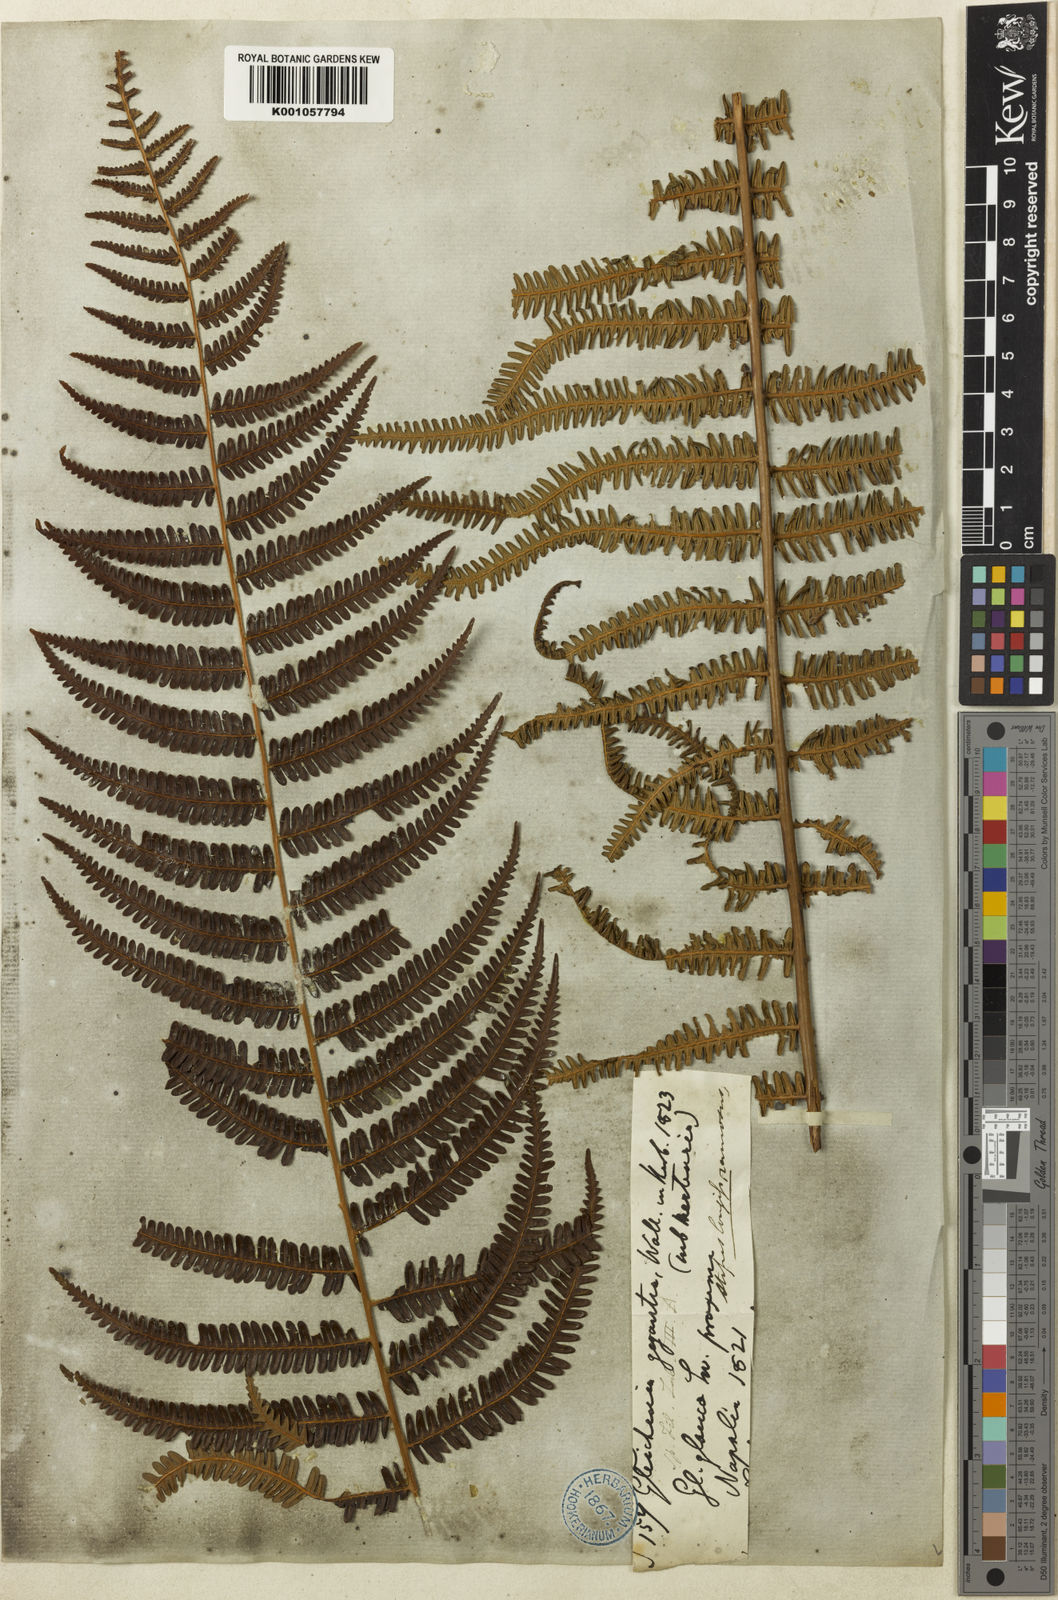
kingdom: Plantae
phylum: Tracheophyta
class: Polypodiopsida
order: Gleicheniales
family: Gleicheniaceae
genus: Diplopterygium
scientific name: Diplopterygium
